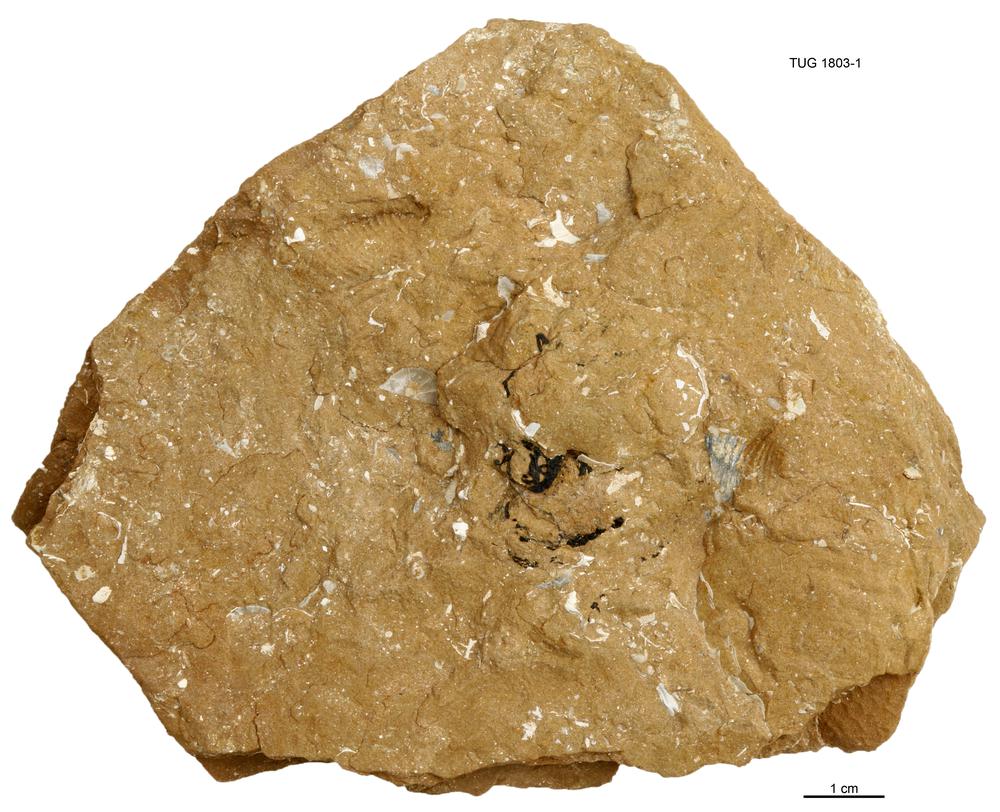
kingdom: Animalia
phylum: Hemichordata
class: Pterobranchia
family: Cephalodiscidae
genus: Melanostrophus
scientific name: Melanostrophus
